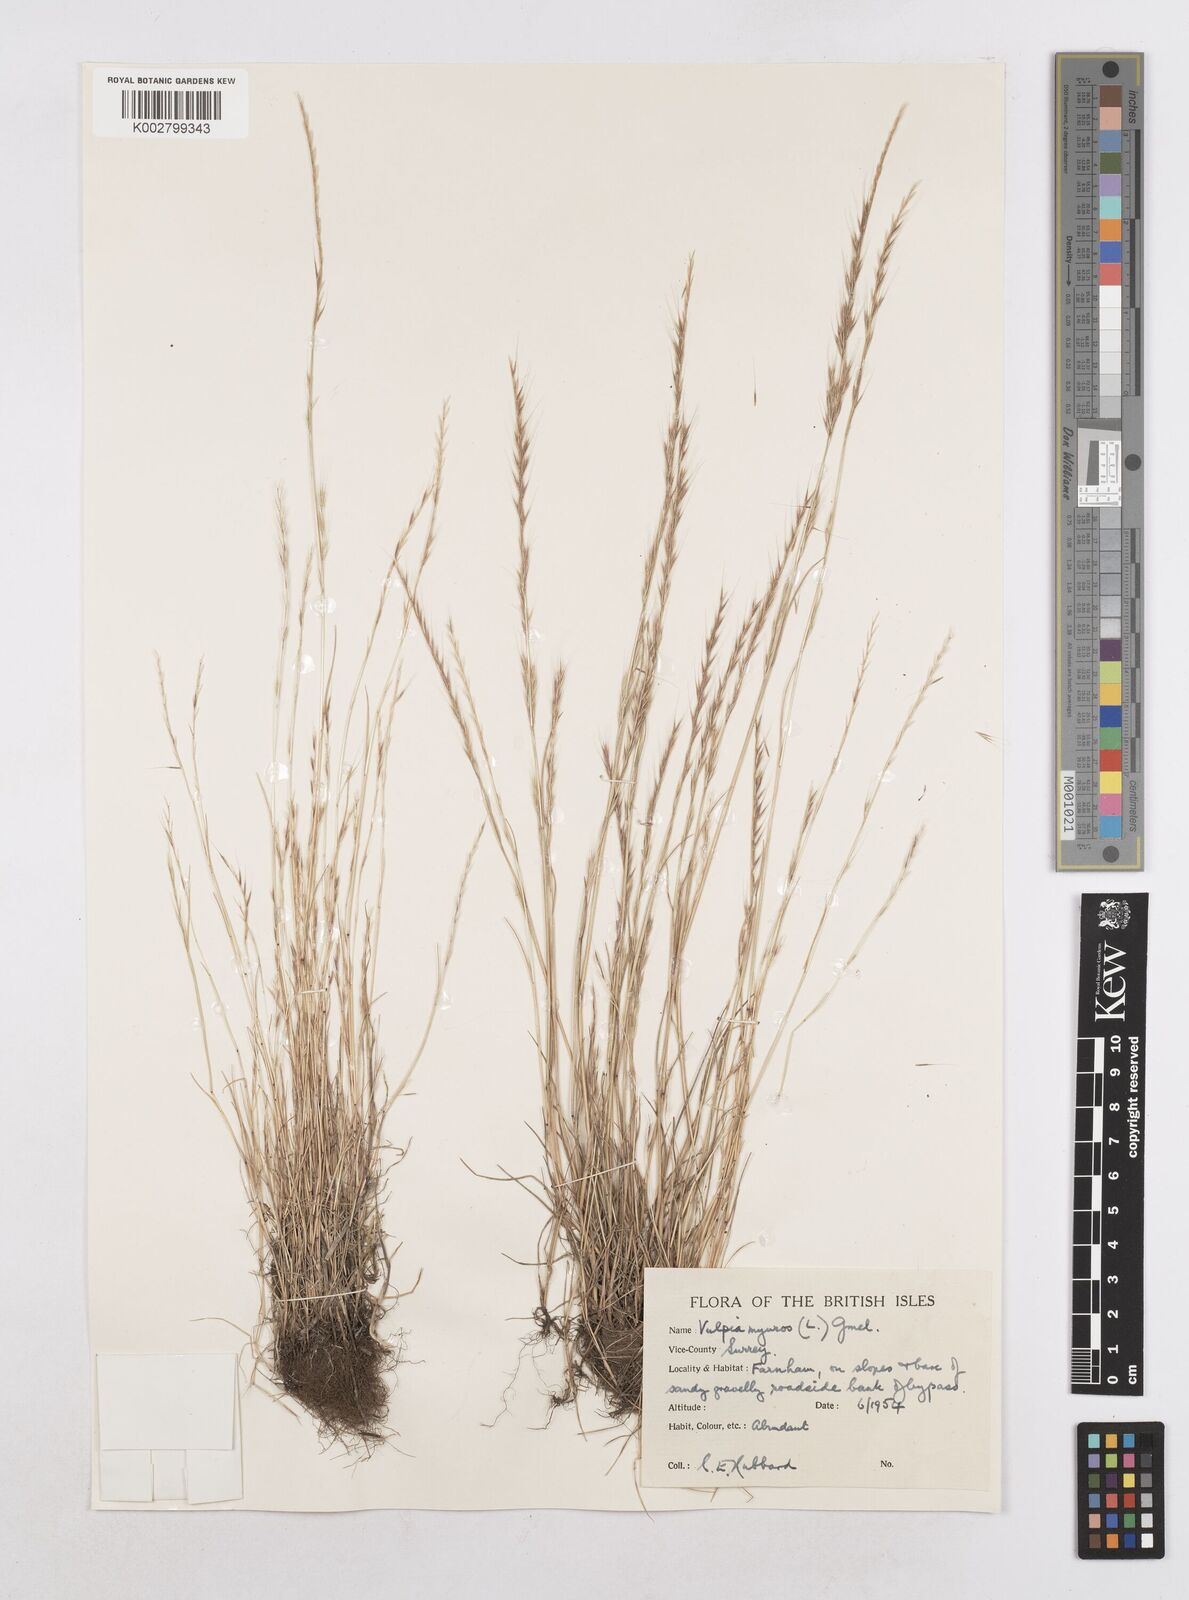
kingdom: Plantae
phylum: Tracheophyta
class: Liliopsida
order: Poales
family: Poaceae
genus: Festuca
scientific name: Festuca myuros
